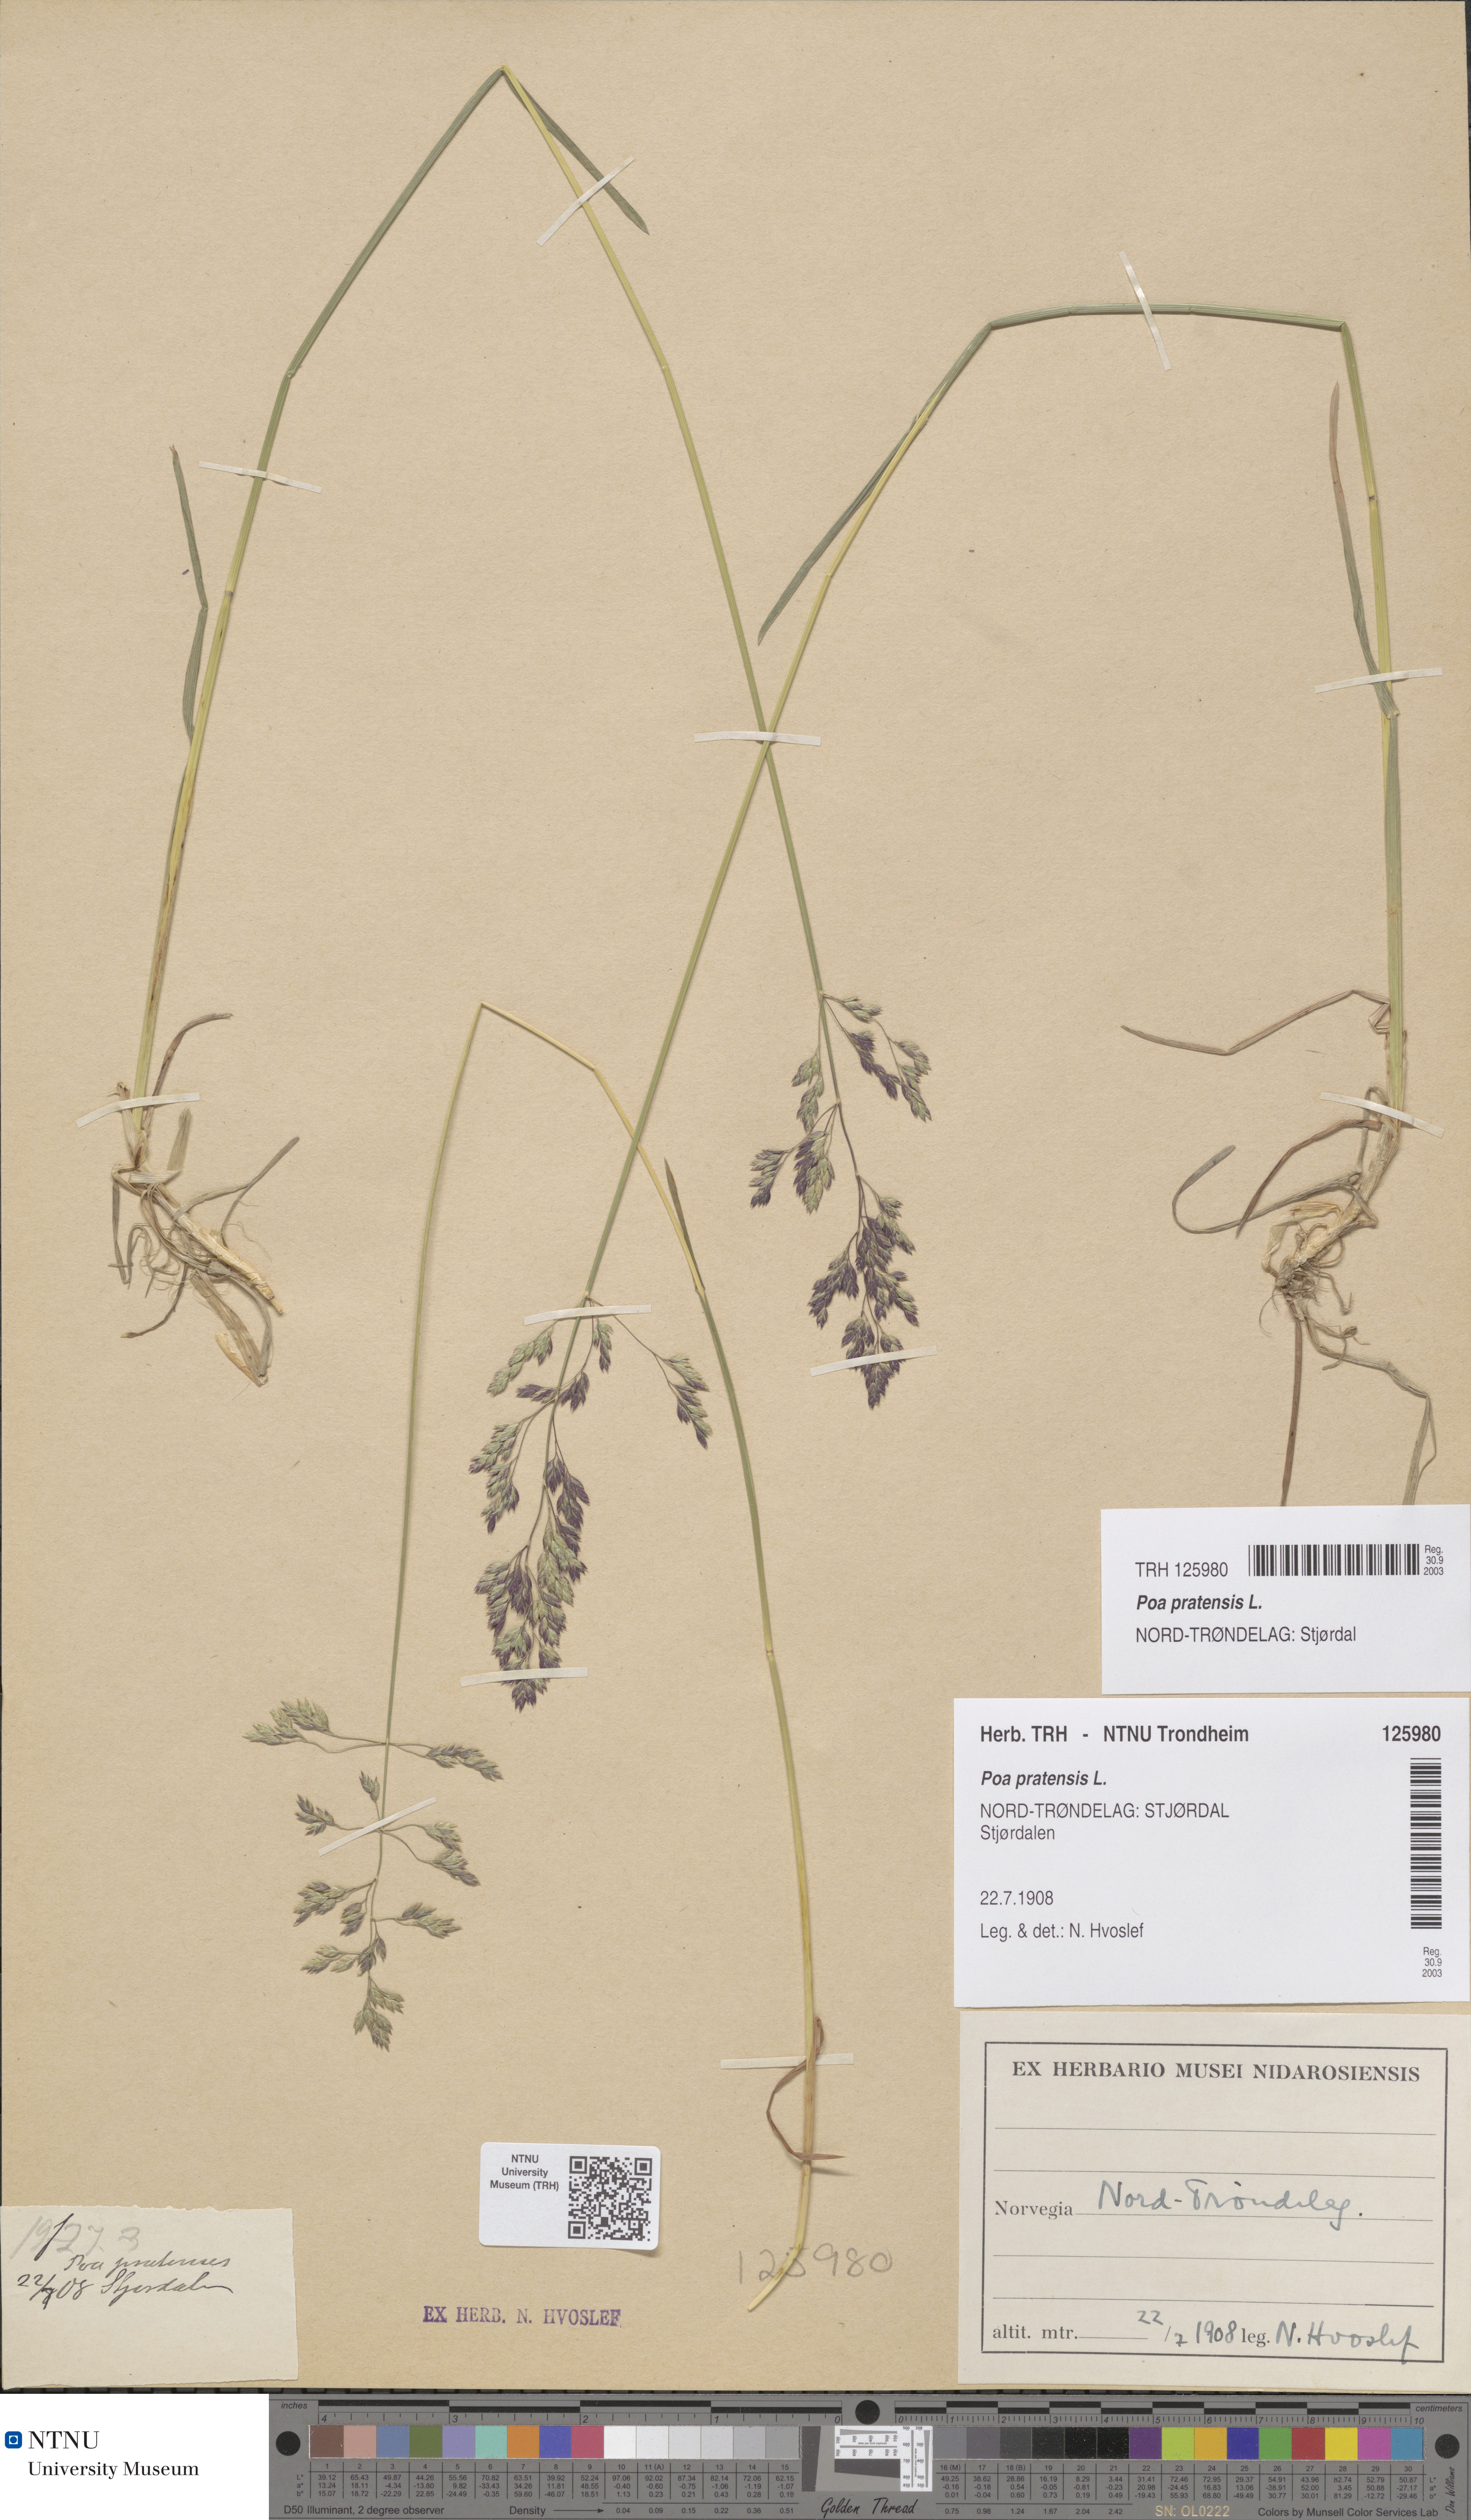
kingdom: Plantae
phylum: Tracheophyta
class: Liliopsida
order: Poales
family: Poaceae
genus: Poa
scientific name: Poa pratensis
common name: Kentucky bluegrass
